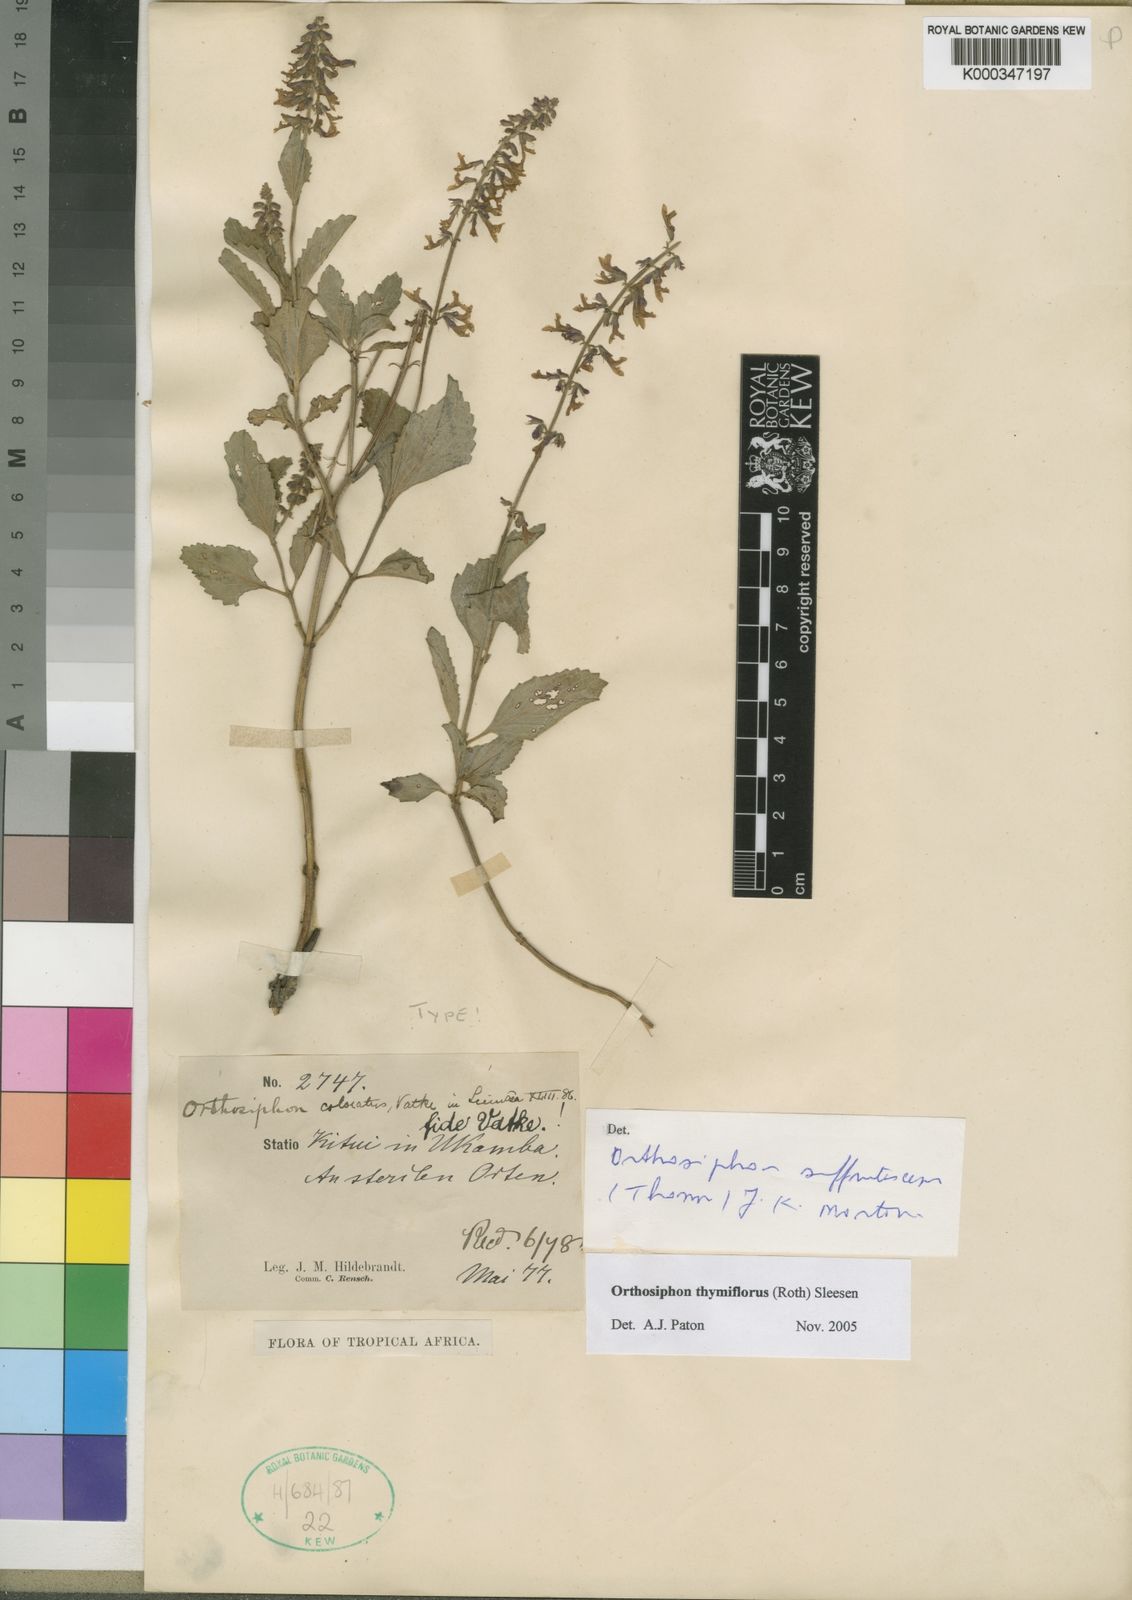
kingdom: Plantae
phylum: Tracheophyta
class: Magnoliopsida
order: Lamiales
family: Lamiaceae
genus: Orthosiphon
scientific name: Orthosiphon thymiflorus
